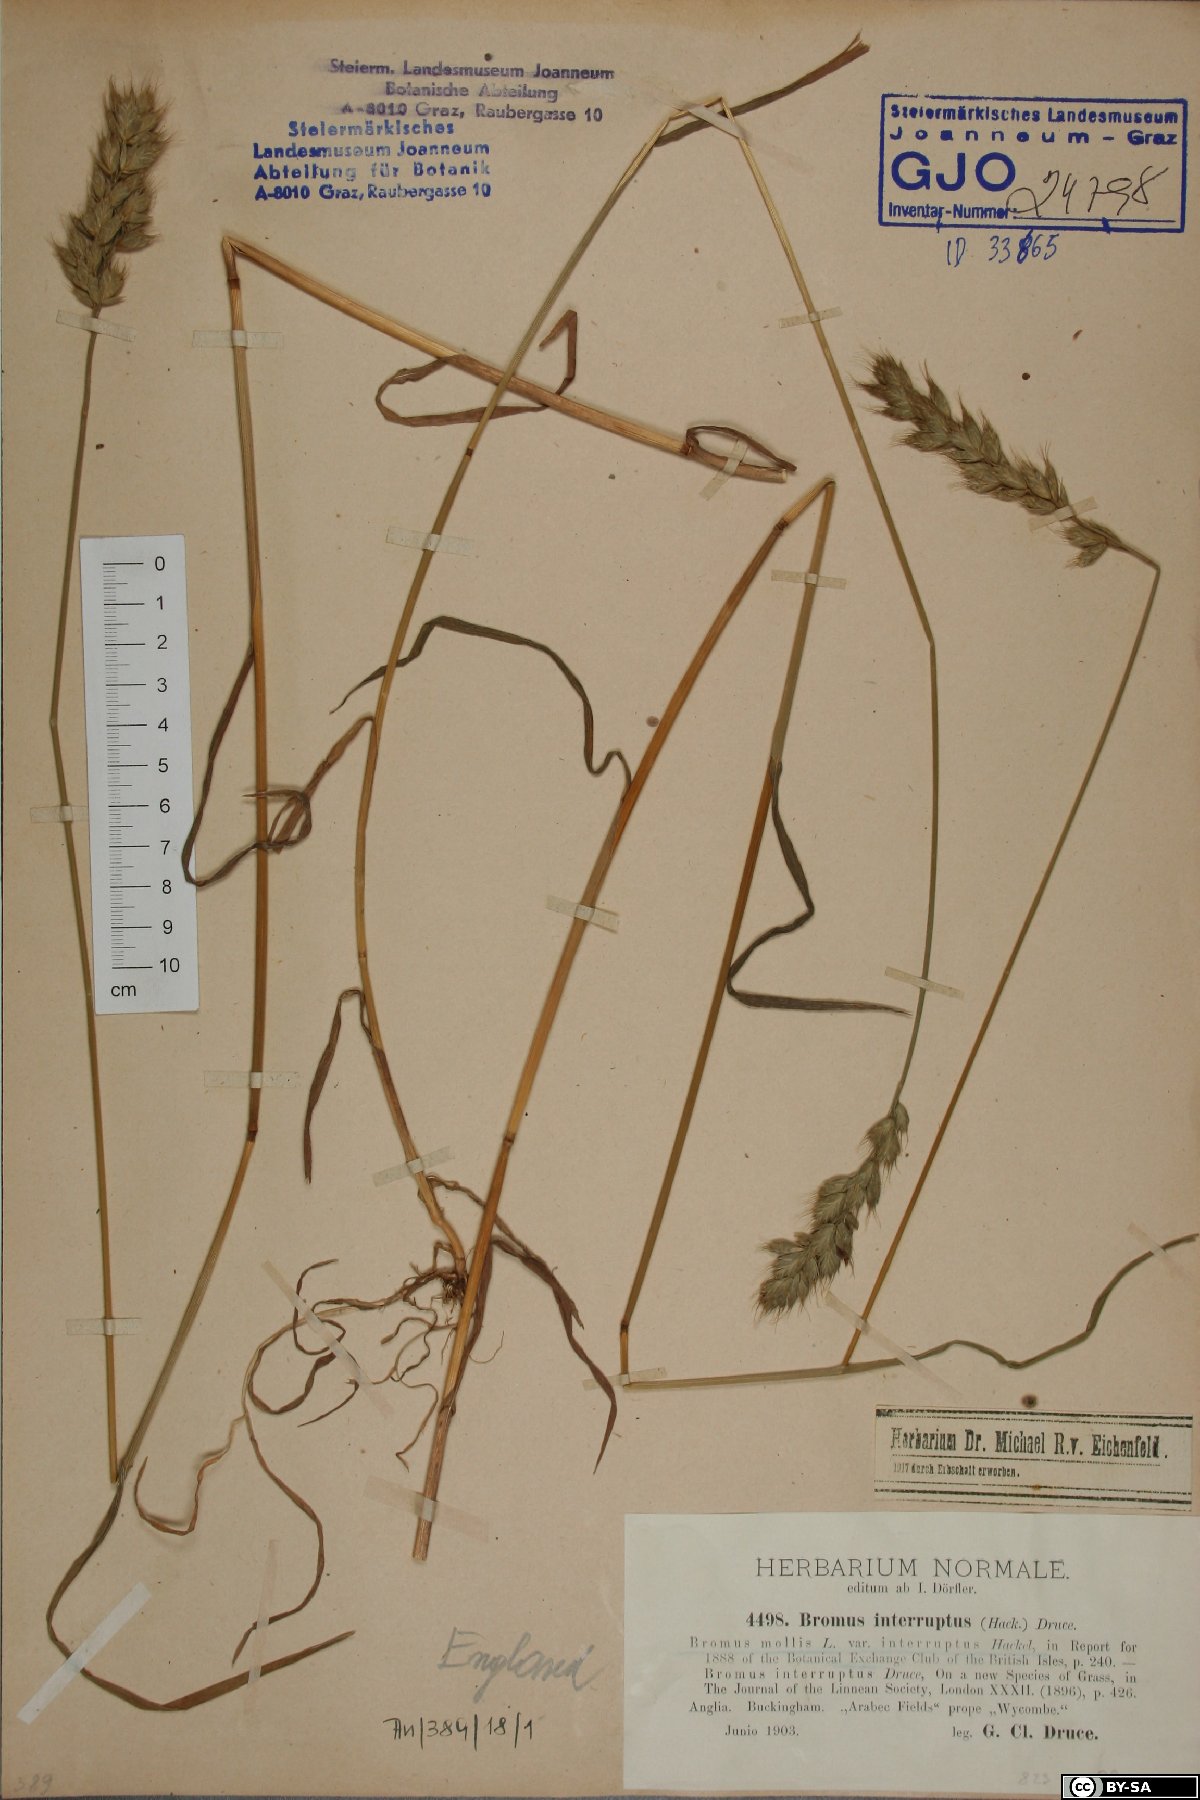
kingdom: Plantae
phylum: Tracheophyta
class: Liliopsida
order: Poales
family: Poaceae
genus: Bromus
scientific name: Bromus interruptus
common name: Interrupted brome
